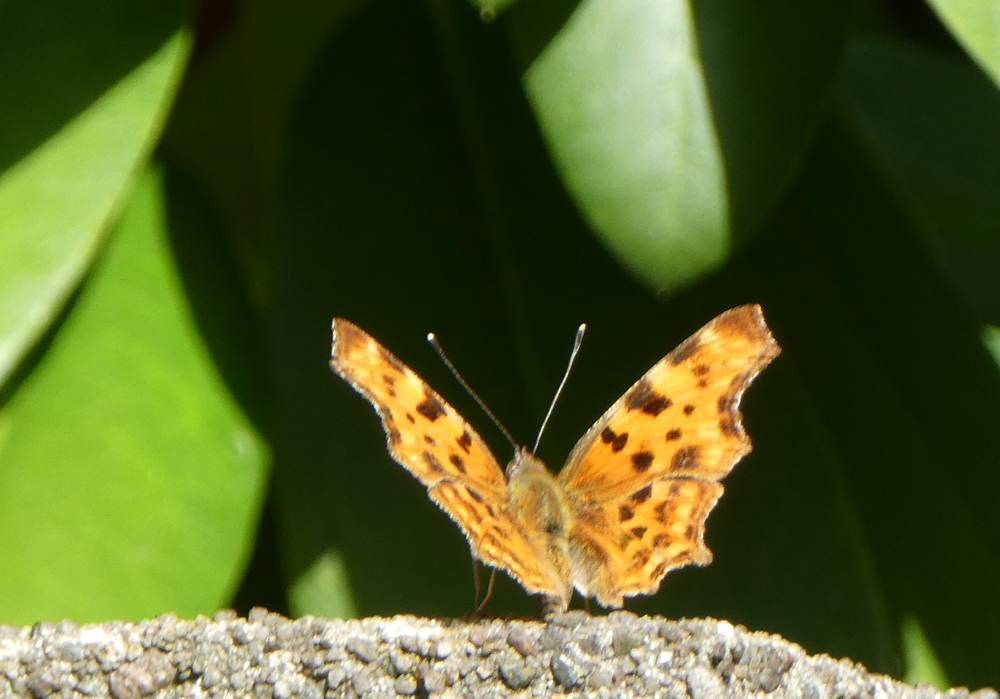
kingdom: Animalia
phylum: Arthropoda
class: Insecta
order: Lepidoptera
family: Nymphalidae
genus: Polygonia
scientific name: Polygonia c-album
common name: Comma
